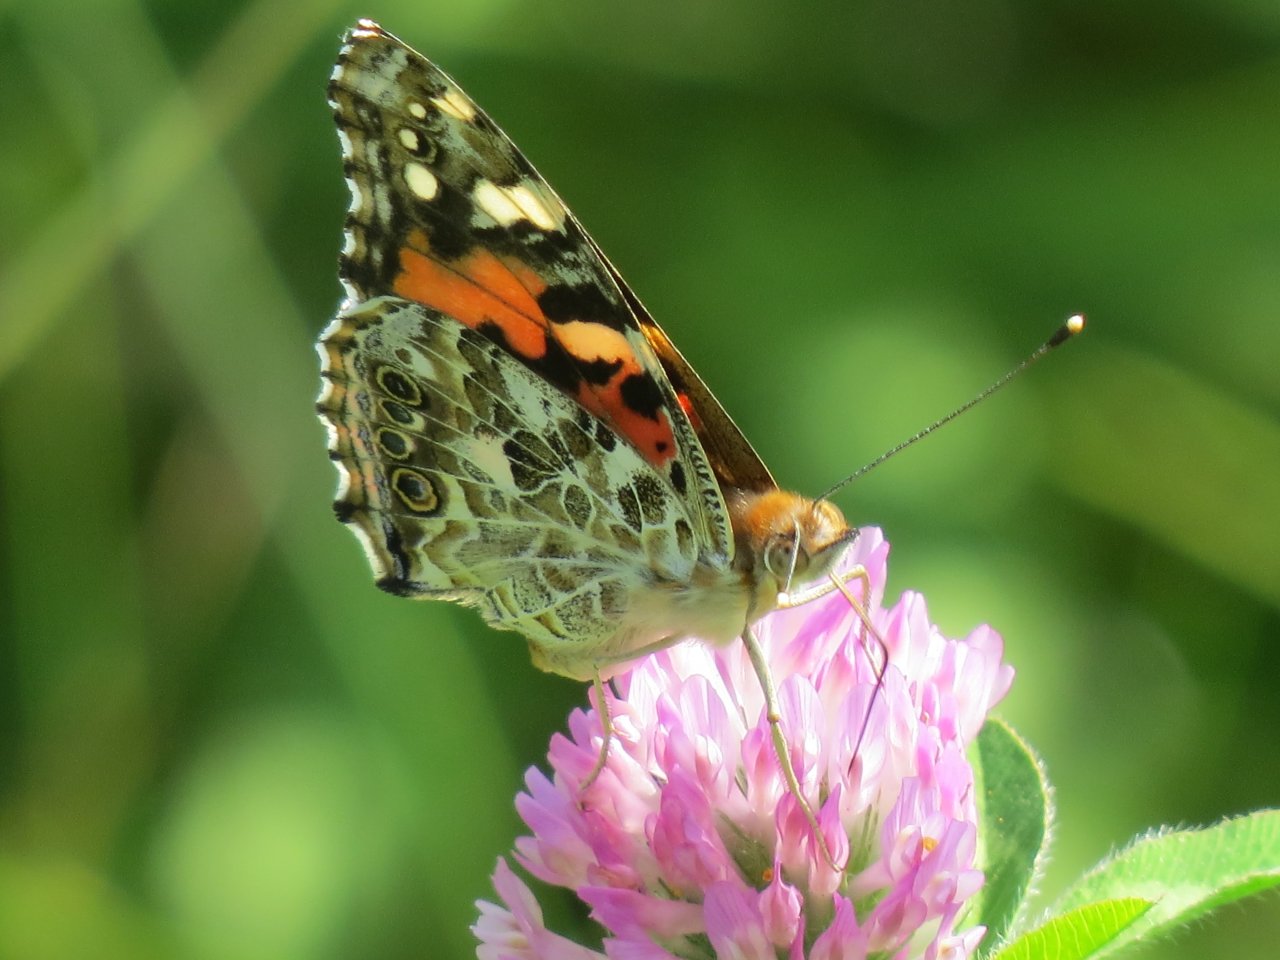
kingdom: Animalia
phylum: Arthropoda
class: Insecta
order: Lepidoptera
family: Nymphalidae
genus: Vanessa
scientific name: Vanessa cardui
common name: Painted Lady
